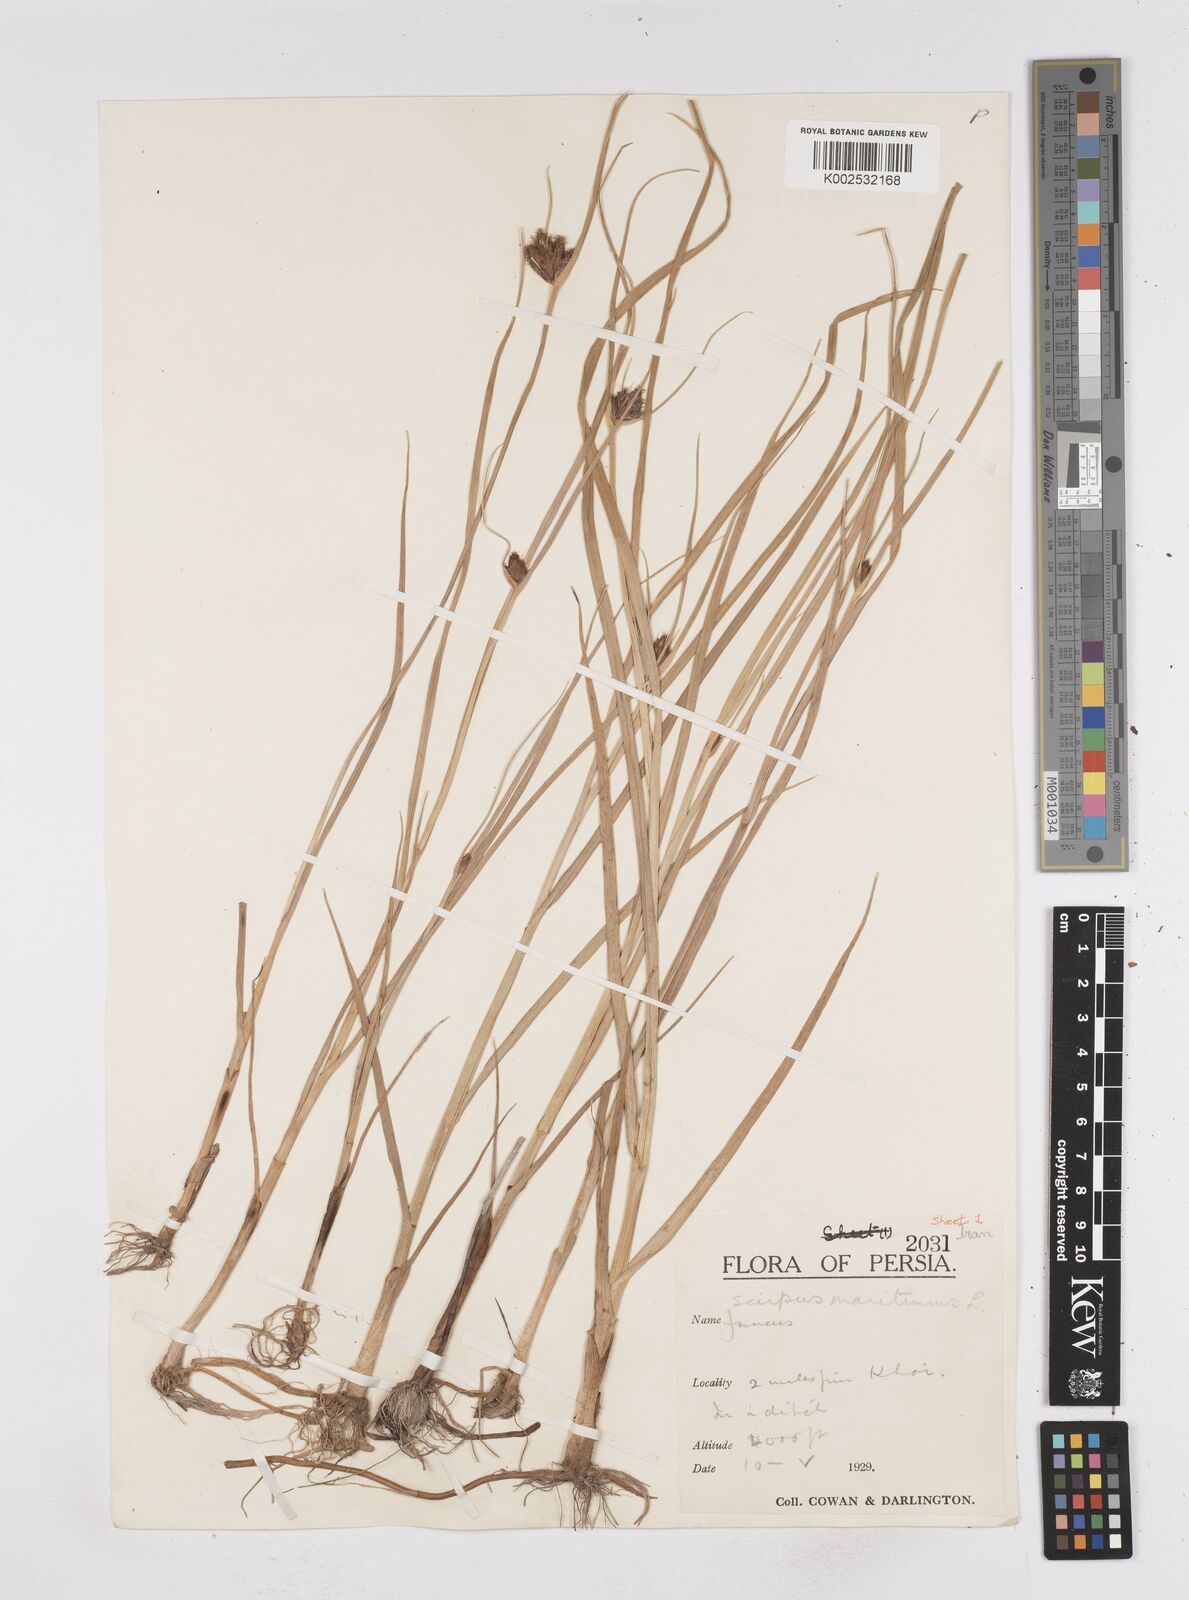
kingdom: Plantae
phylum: Tracheophyta
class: Liliopsida
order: Poales
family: Cyperaceae
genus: Bolboschoenus
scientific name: Bolboschoenus maritimus
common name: Sea club-rush
